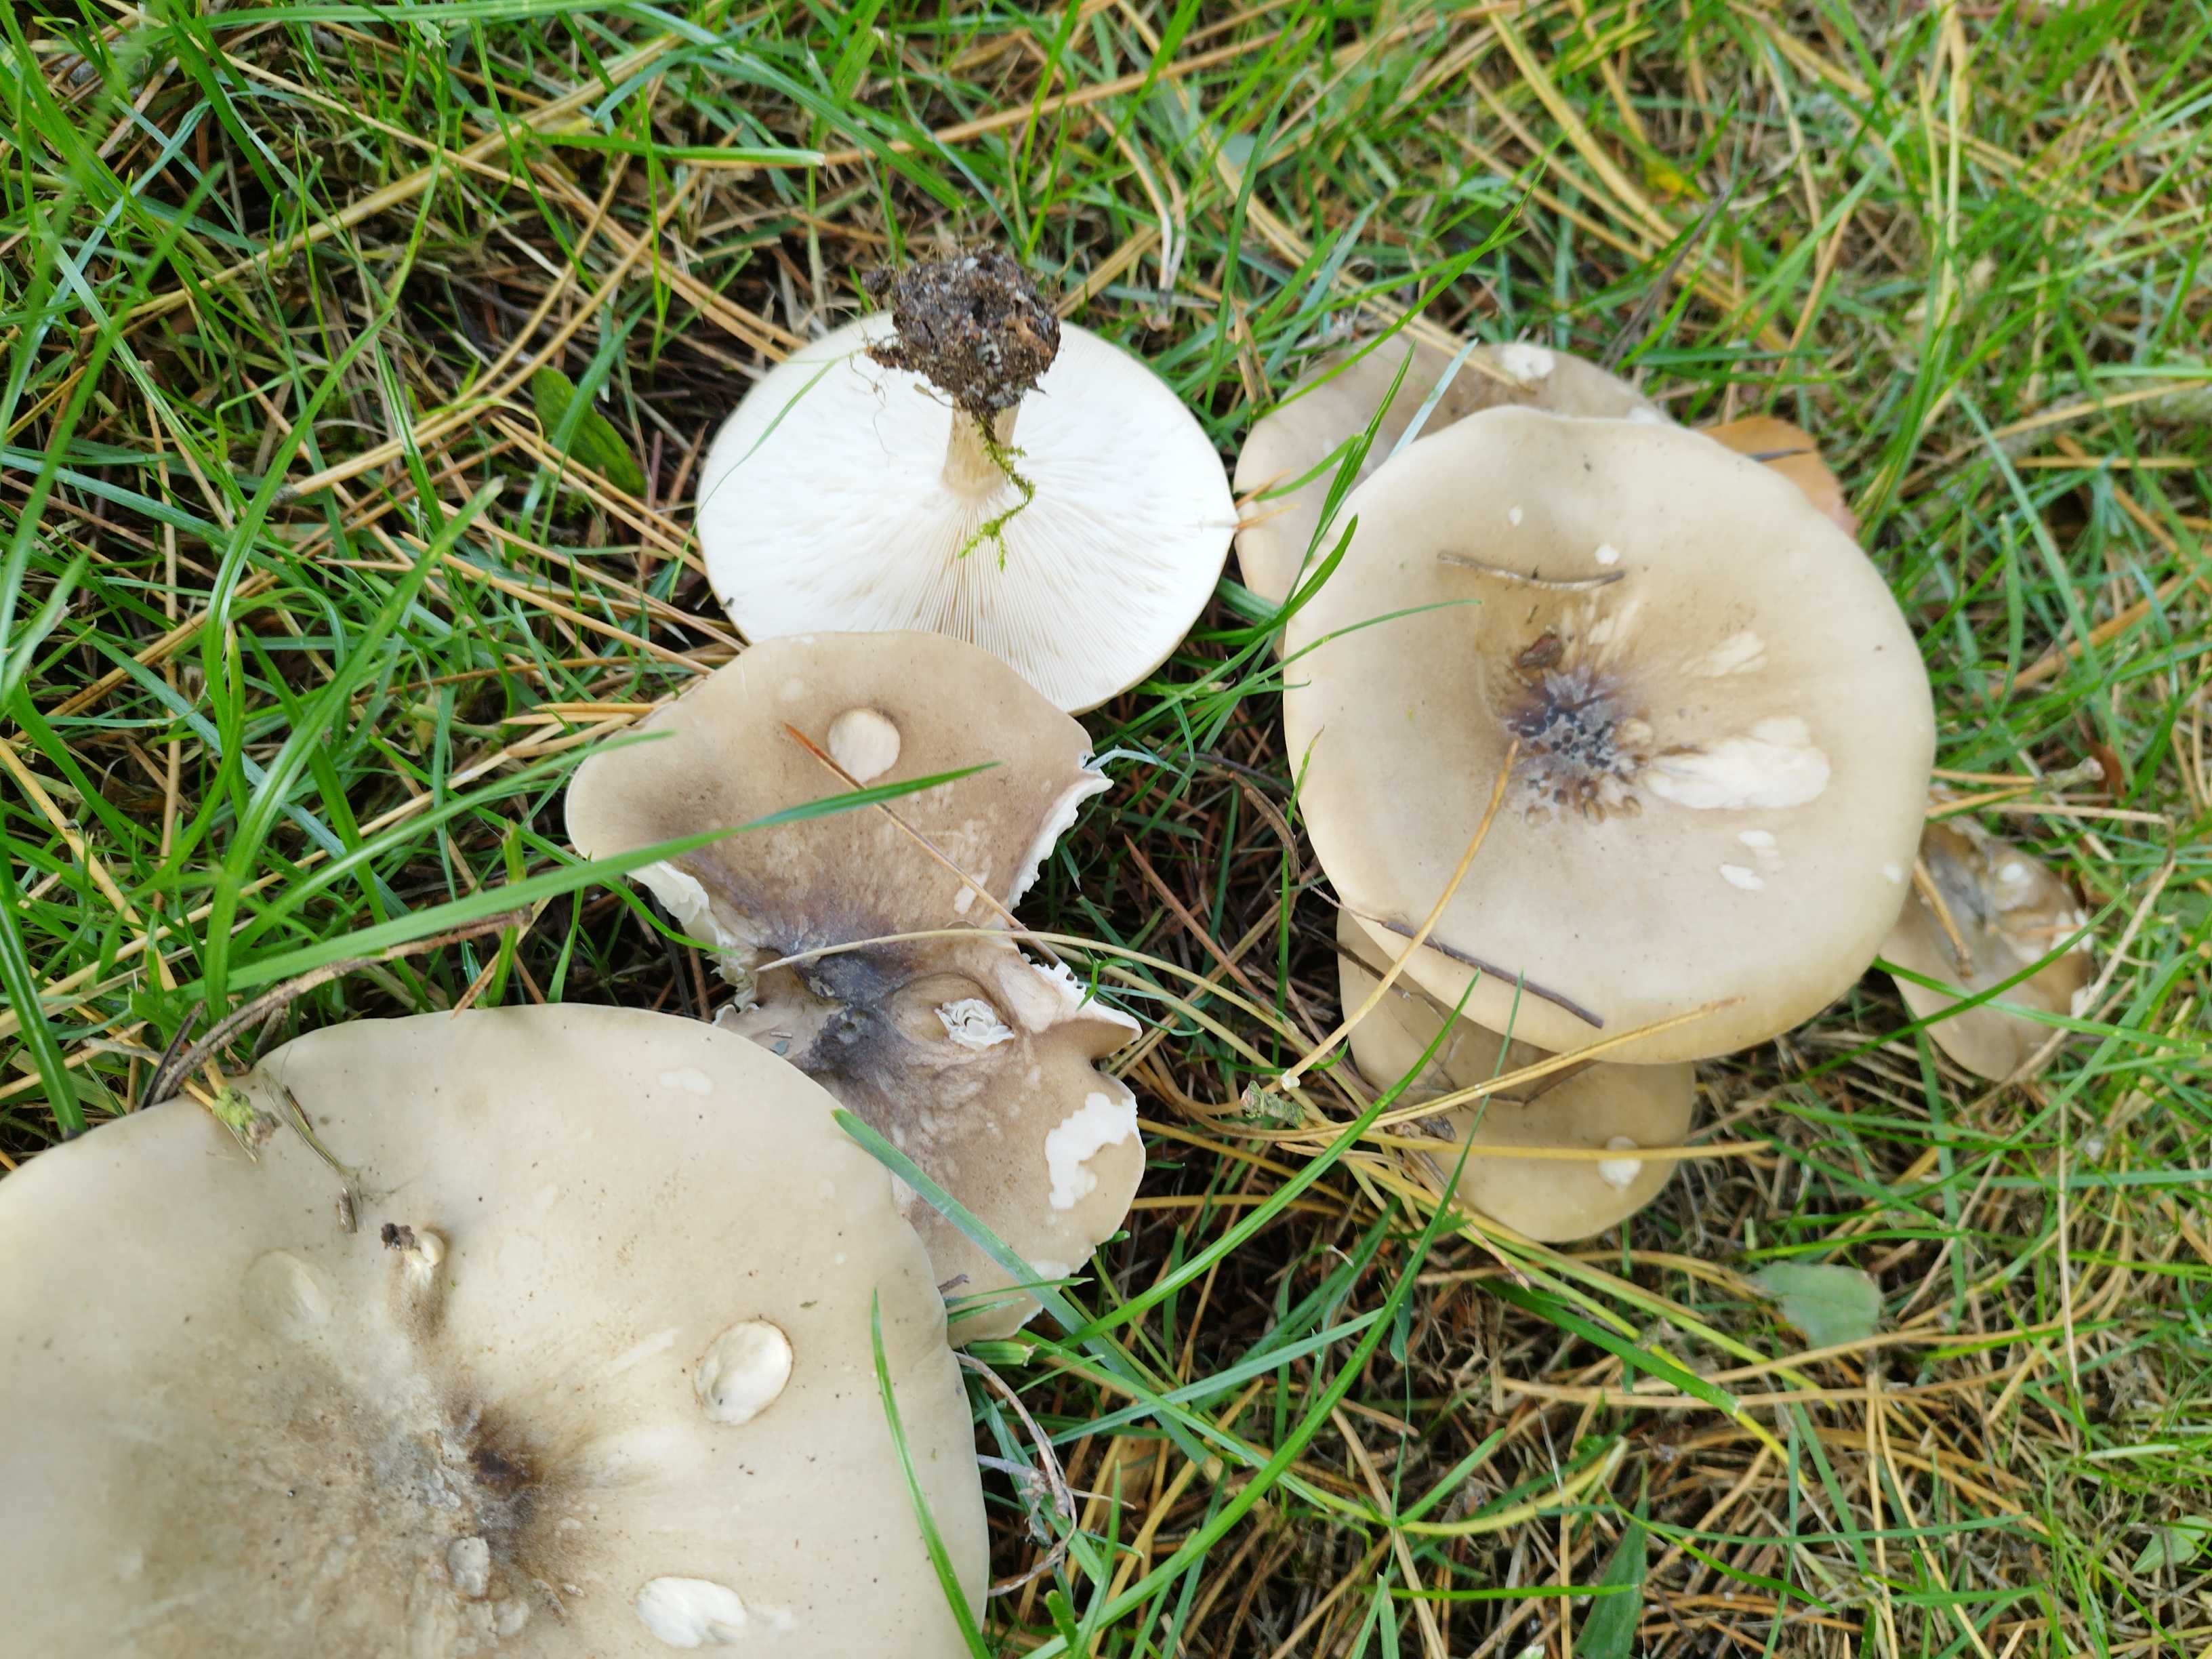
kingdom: Fungi
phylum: Basidiomycota
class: Agaricomycetes
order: Agaricales
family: Tricholomataceae
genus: Melanoleuca
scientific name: Melanoleuca
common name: munkehat
